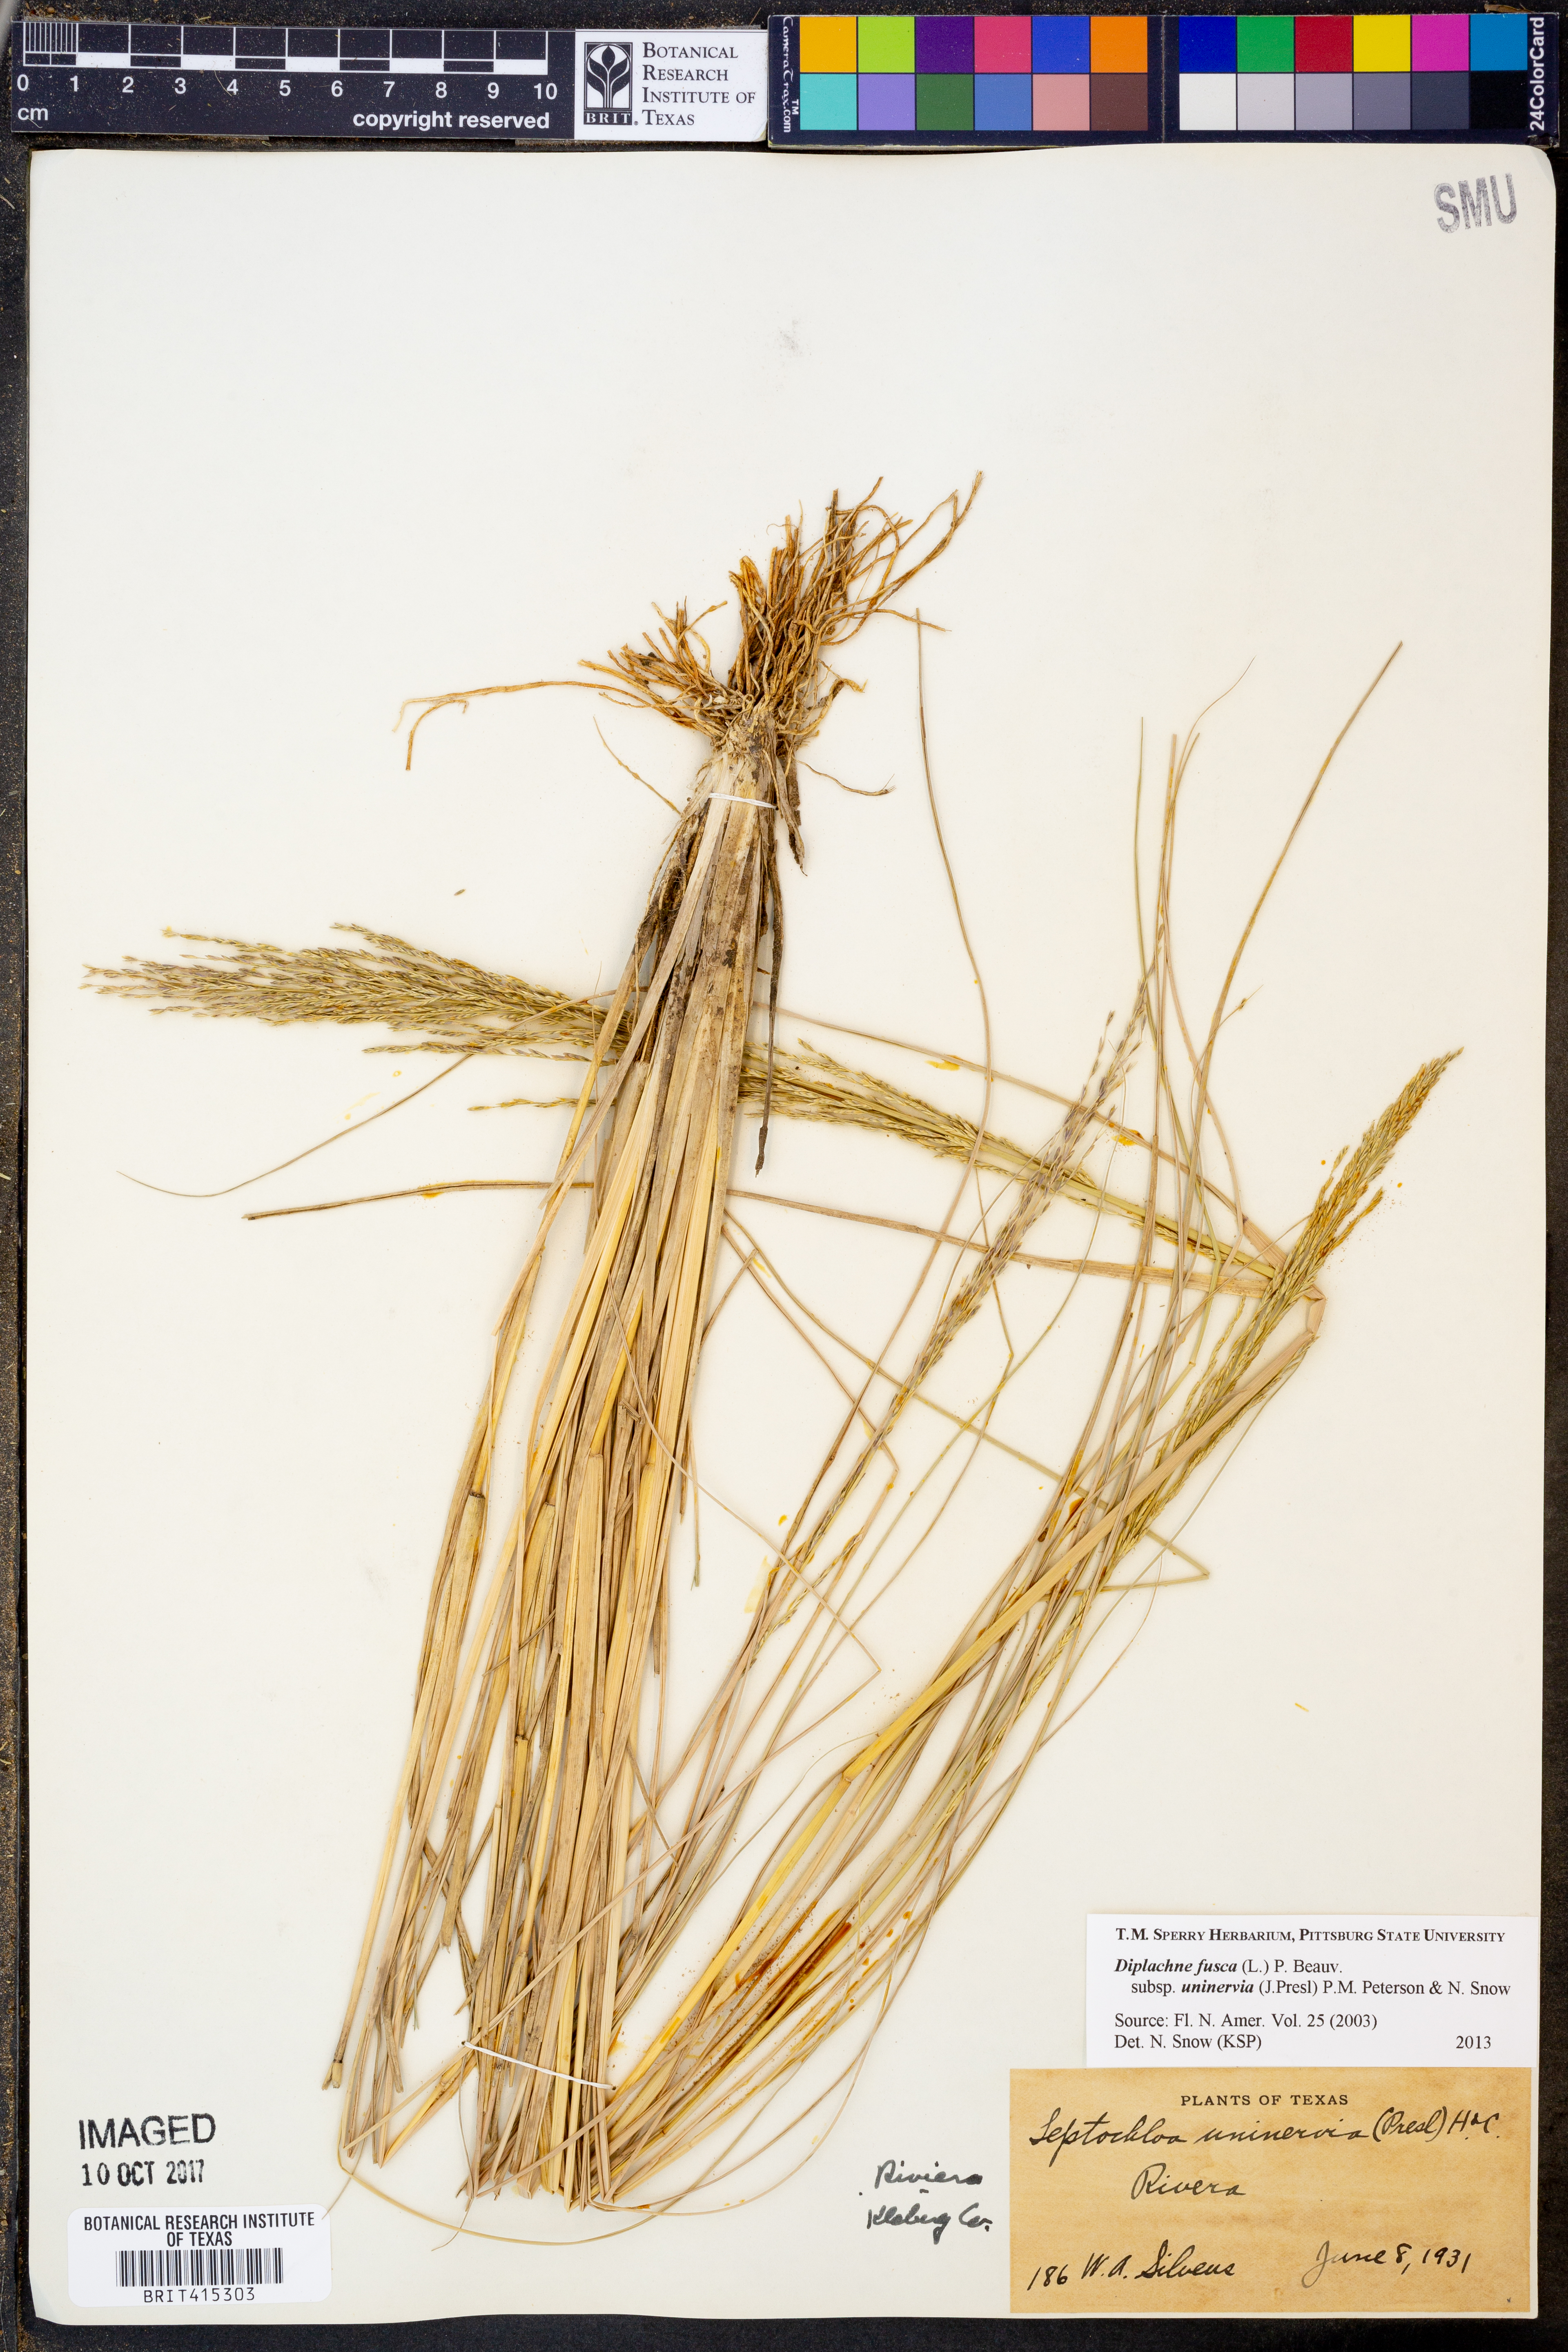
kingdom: Plantae
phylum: Tracheophyta
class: Liliopsida
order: Poales
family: Poaceae
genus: Diplachne
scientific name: Diplachne fusca
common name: Brown beetle grass
